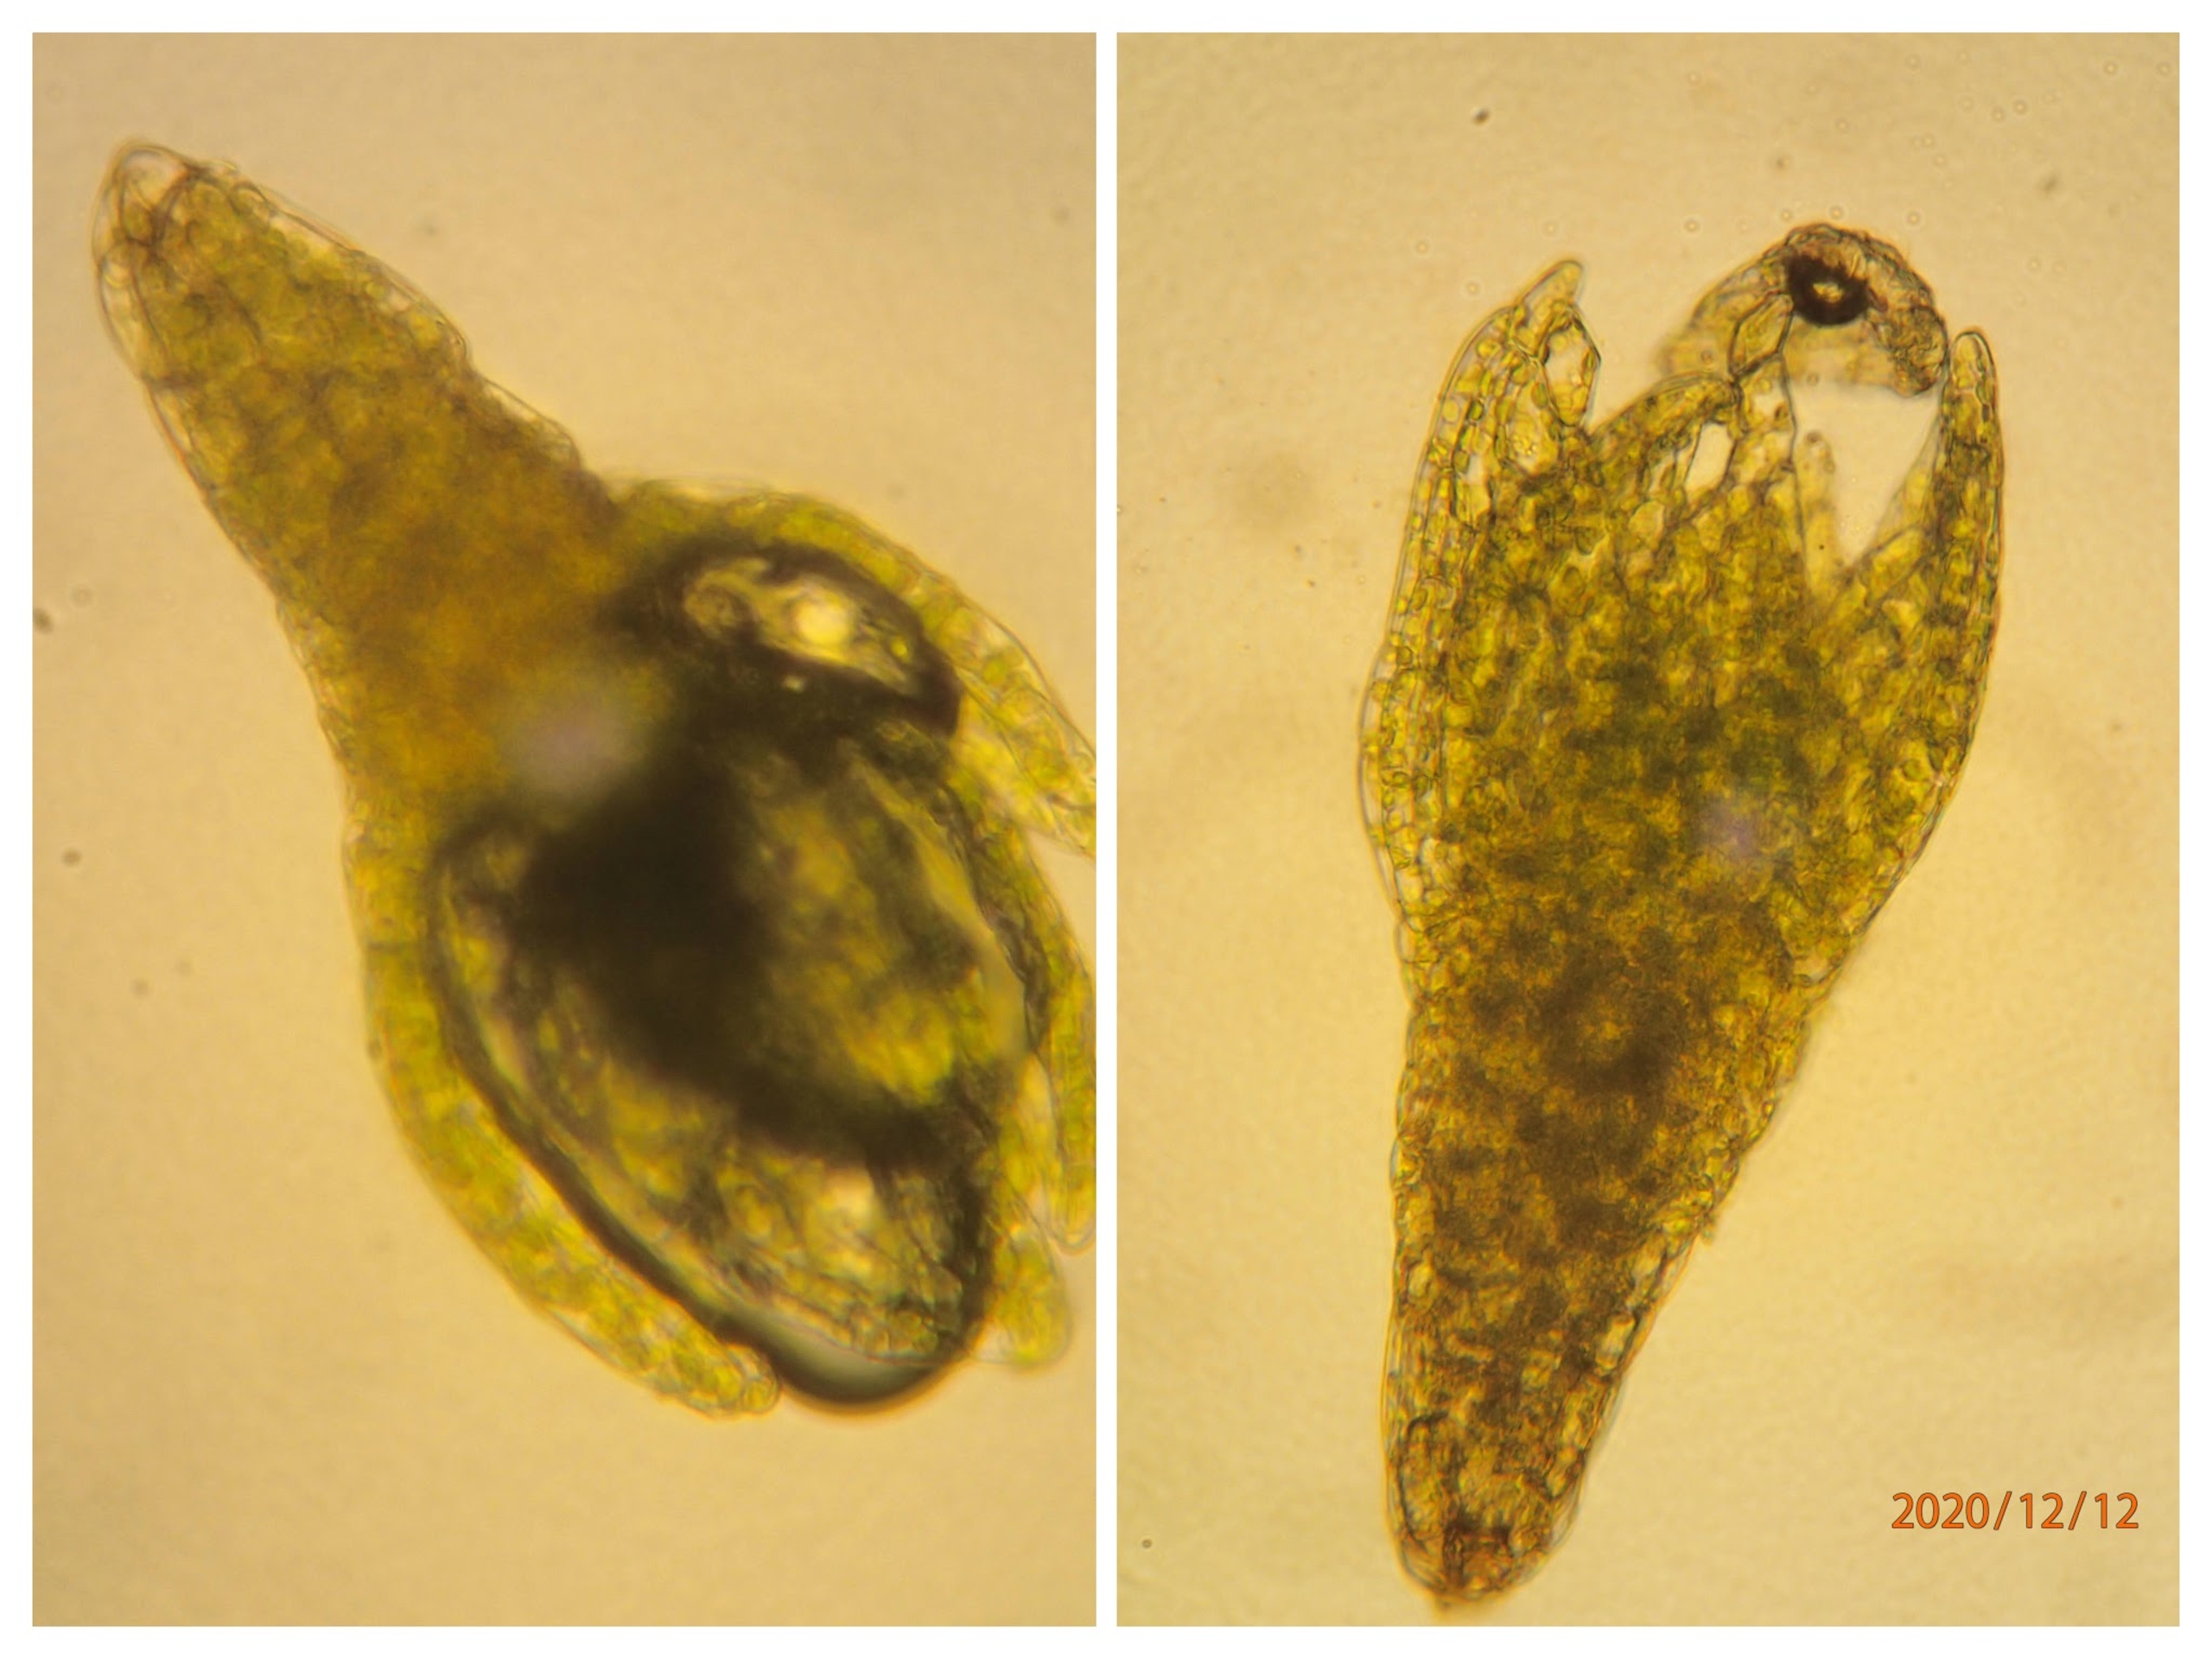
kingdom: Plantae
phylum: Bryophyta
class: Bryopsida
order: Bryales
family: Bryaceae
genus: Gemmabryum
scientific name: Gemmabryum dichotomum
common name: Dværg-bryum
